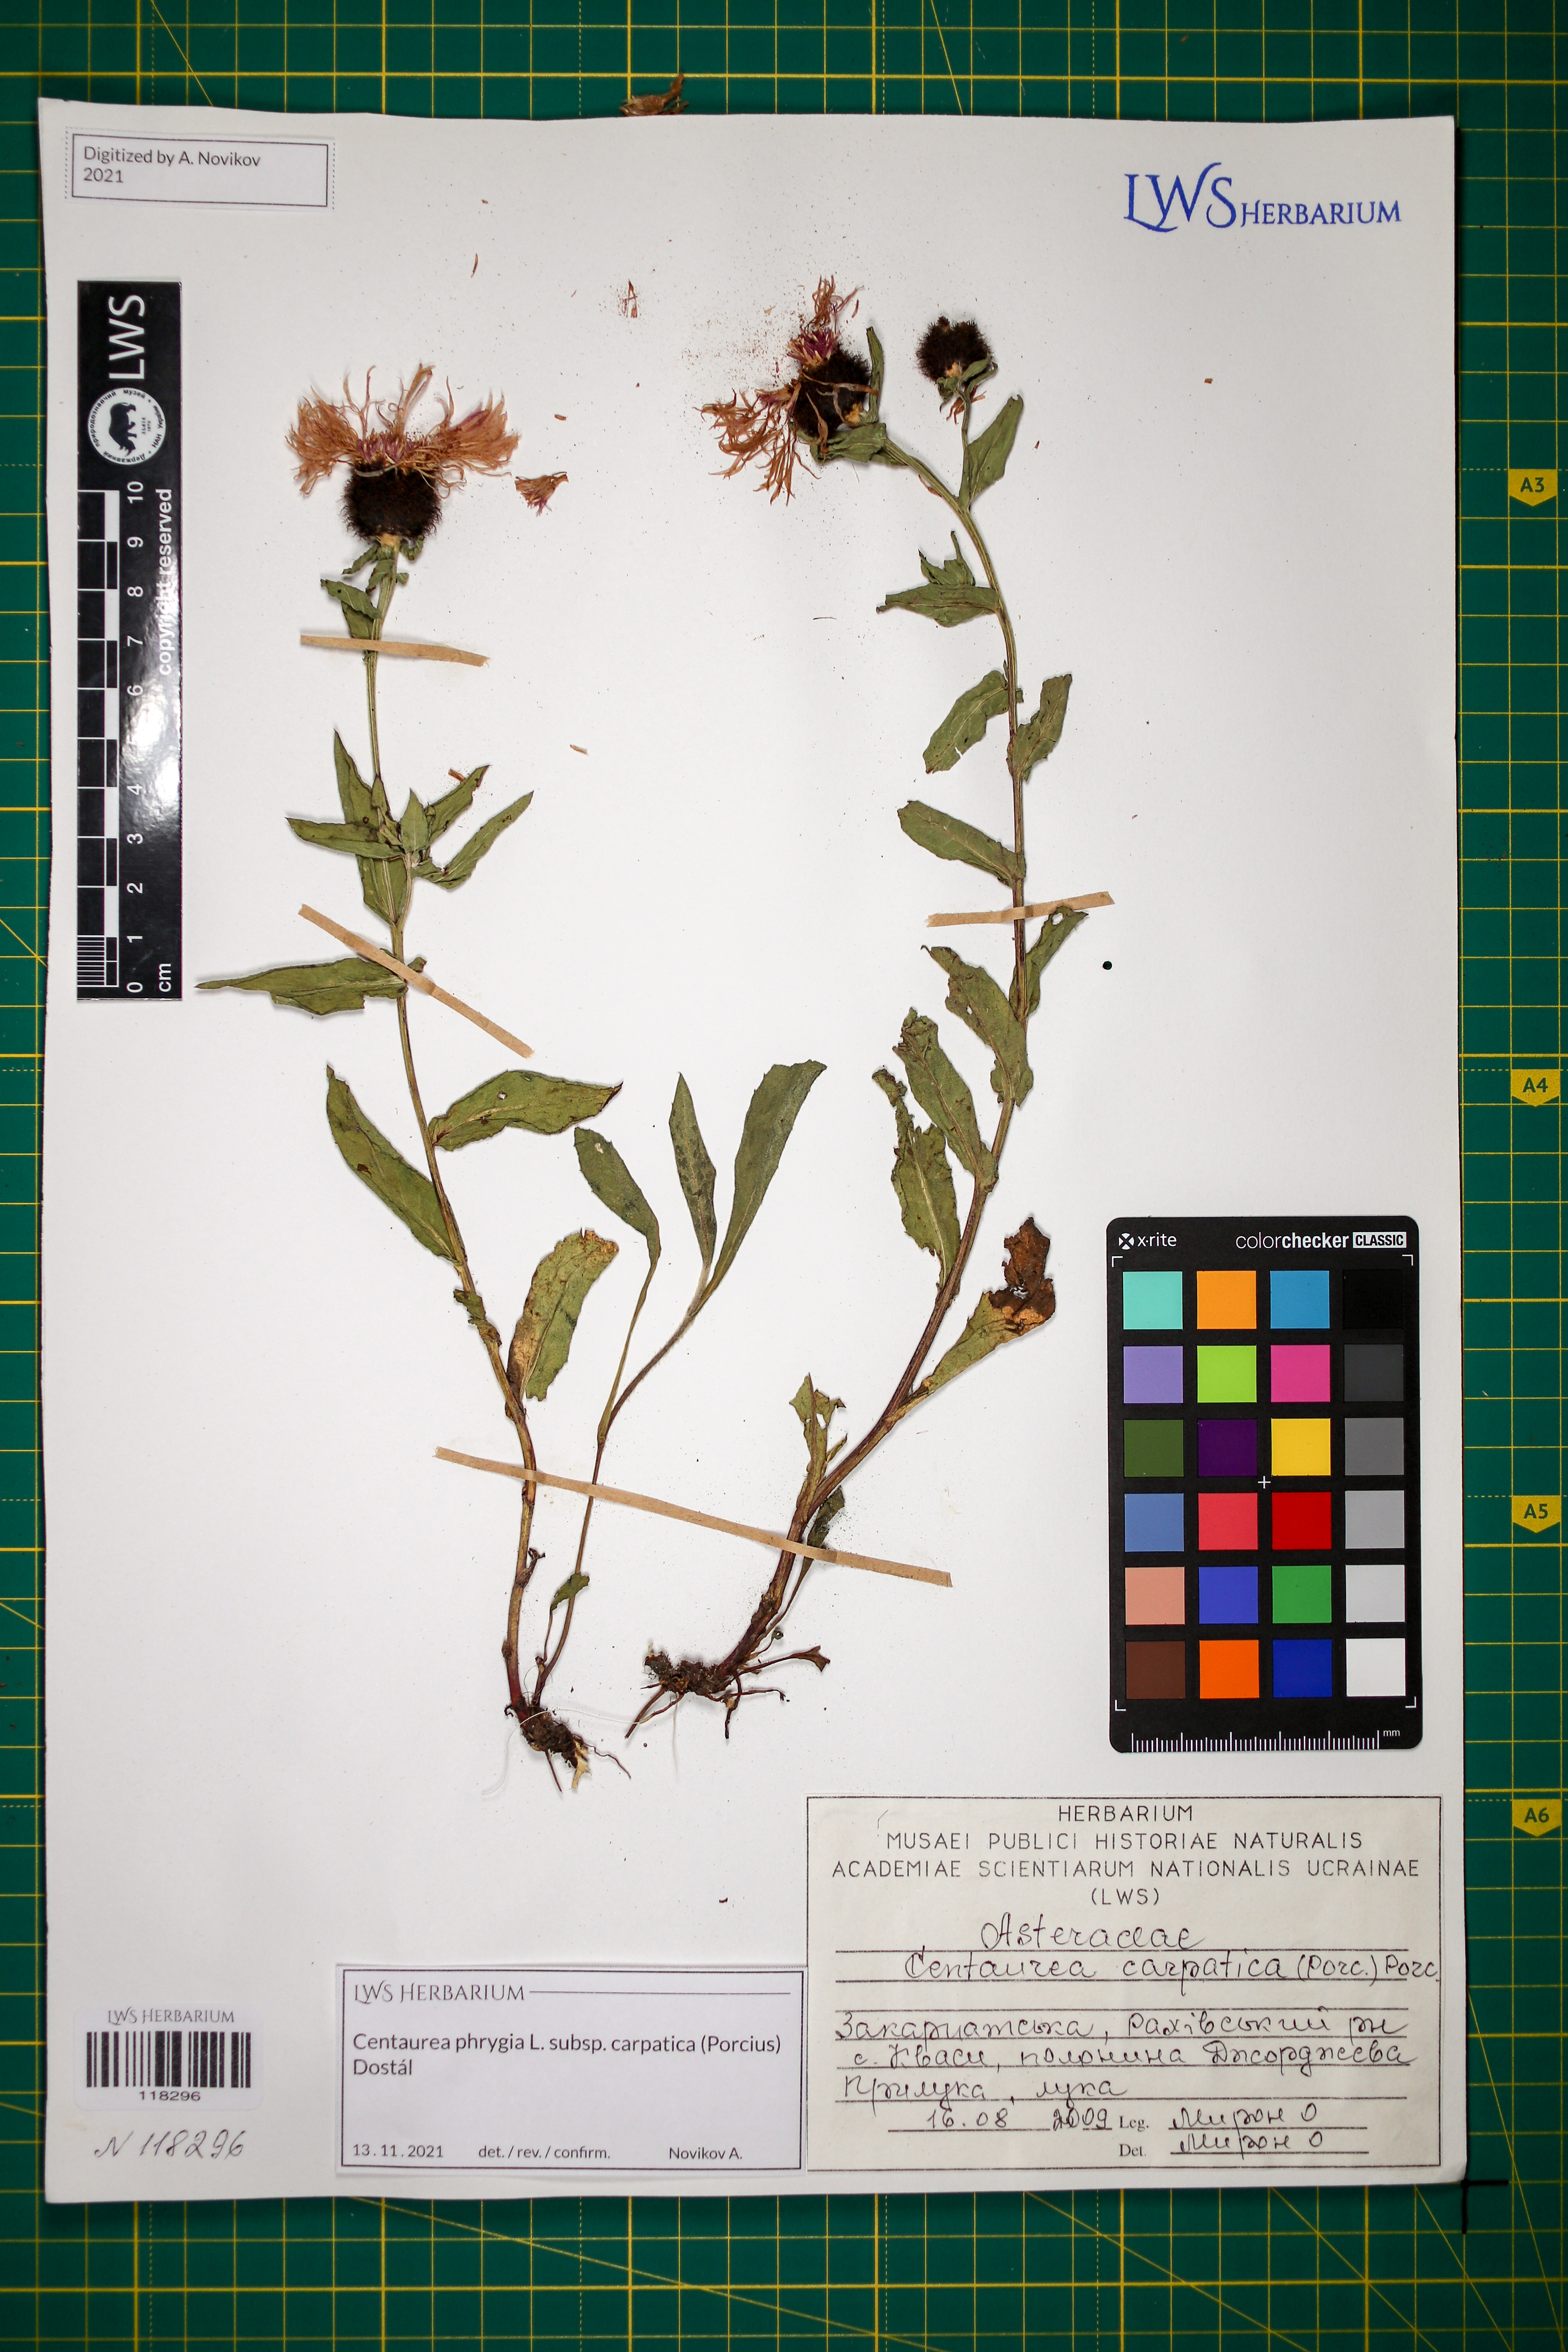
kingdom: Plantae
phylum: Tracheophyta
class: Magnoliopsida
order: Asterales
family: Asteraceae
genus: Centaurea
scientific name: Centaurea phrygia
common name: Wig knapweed
